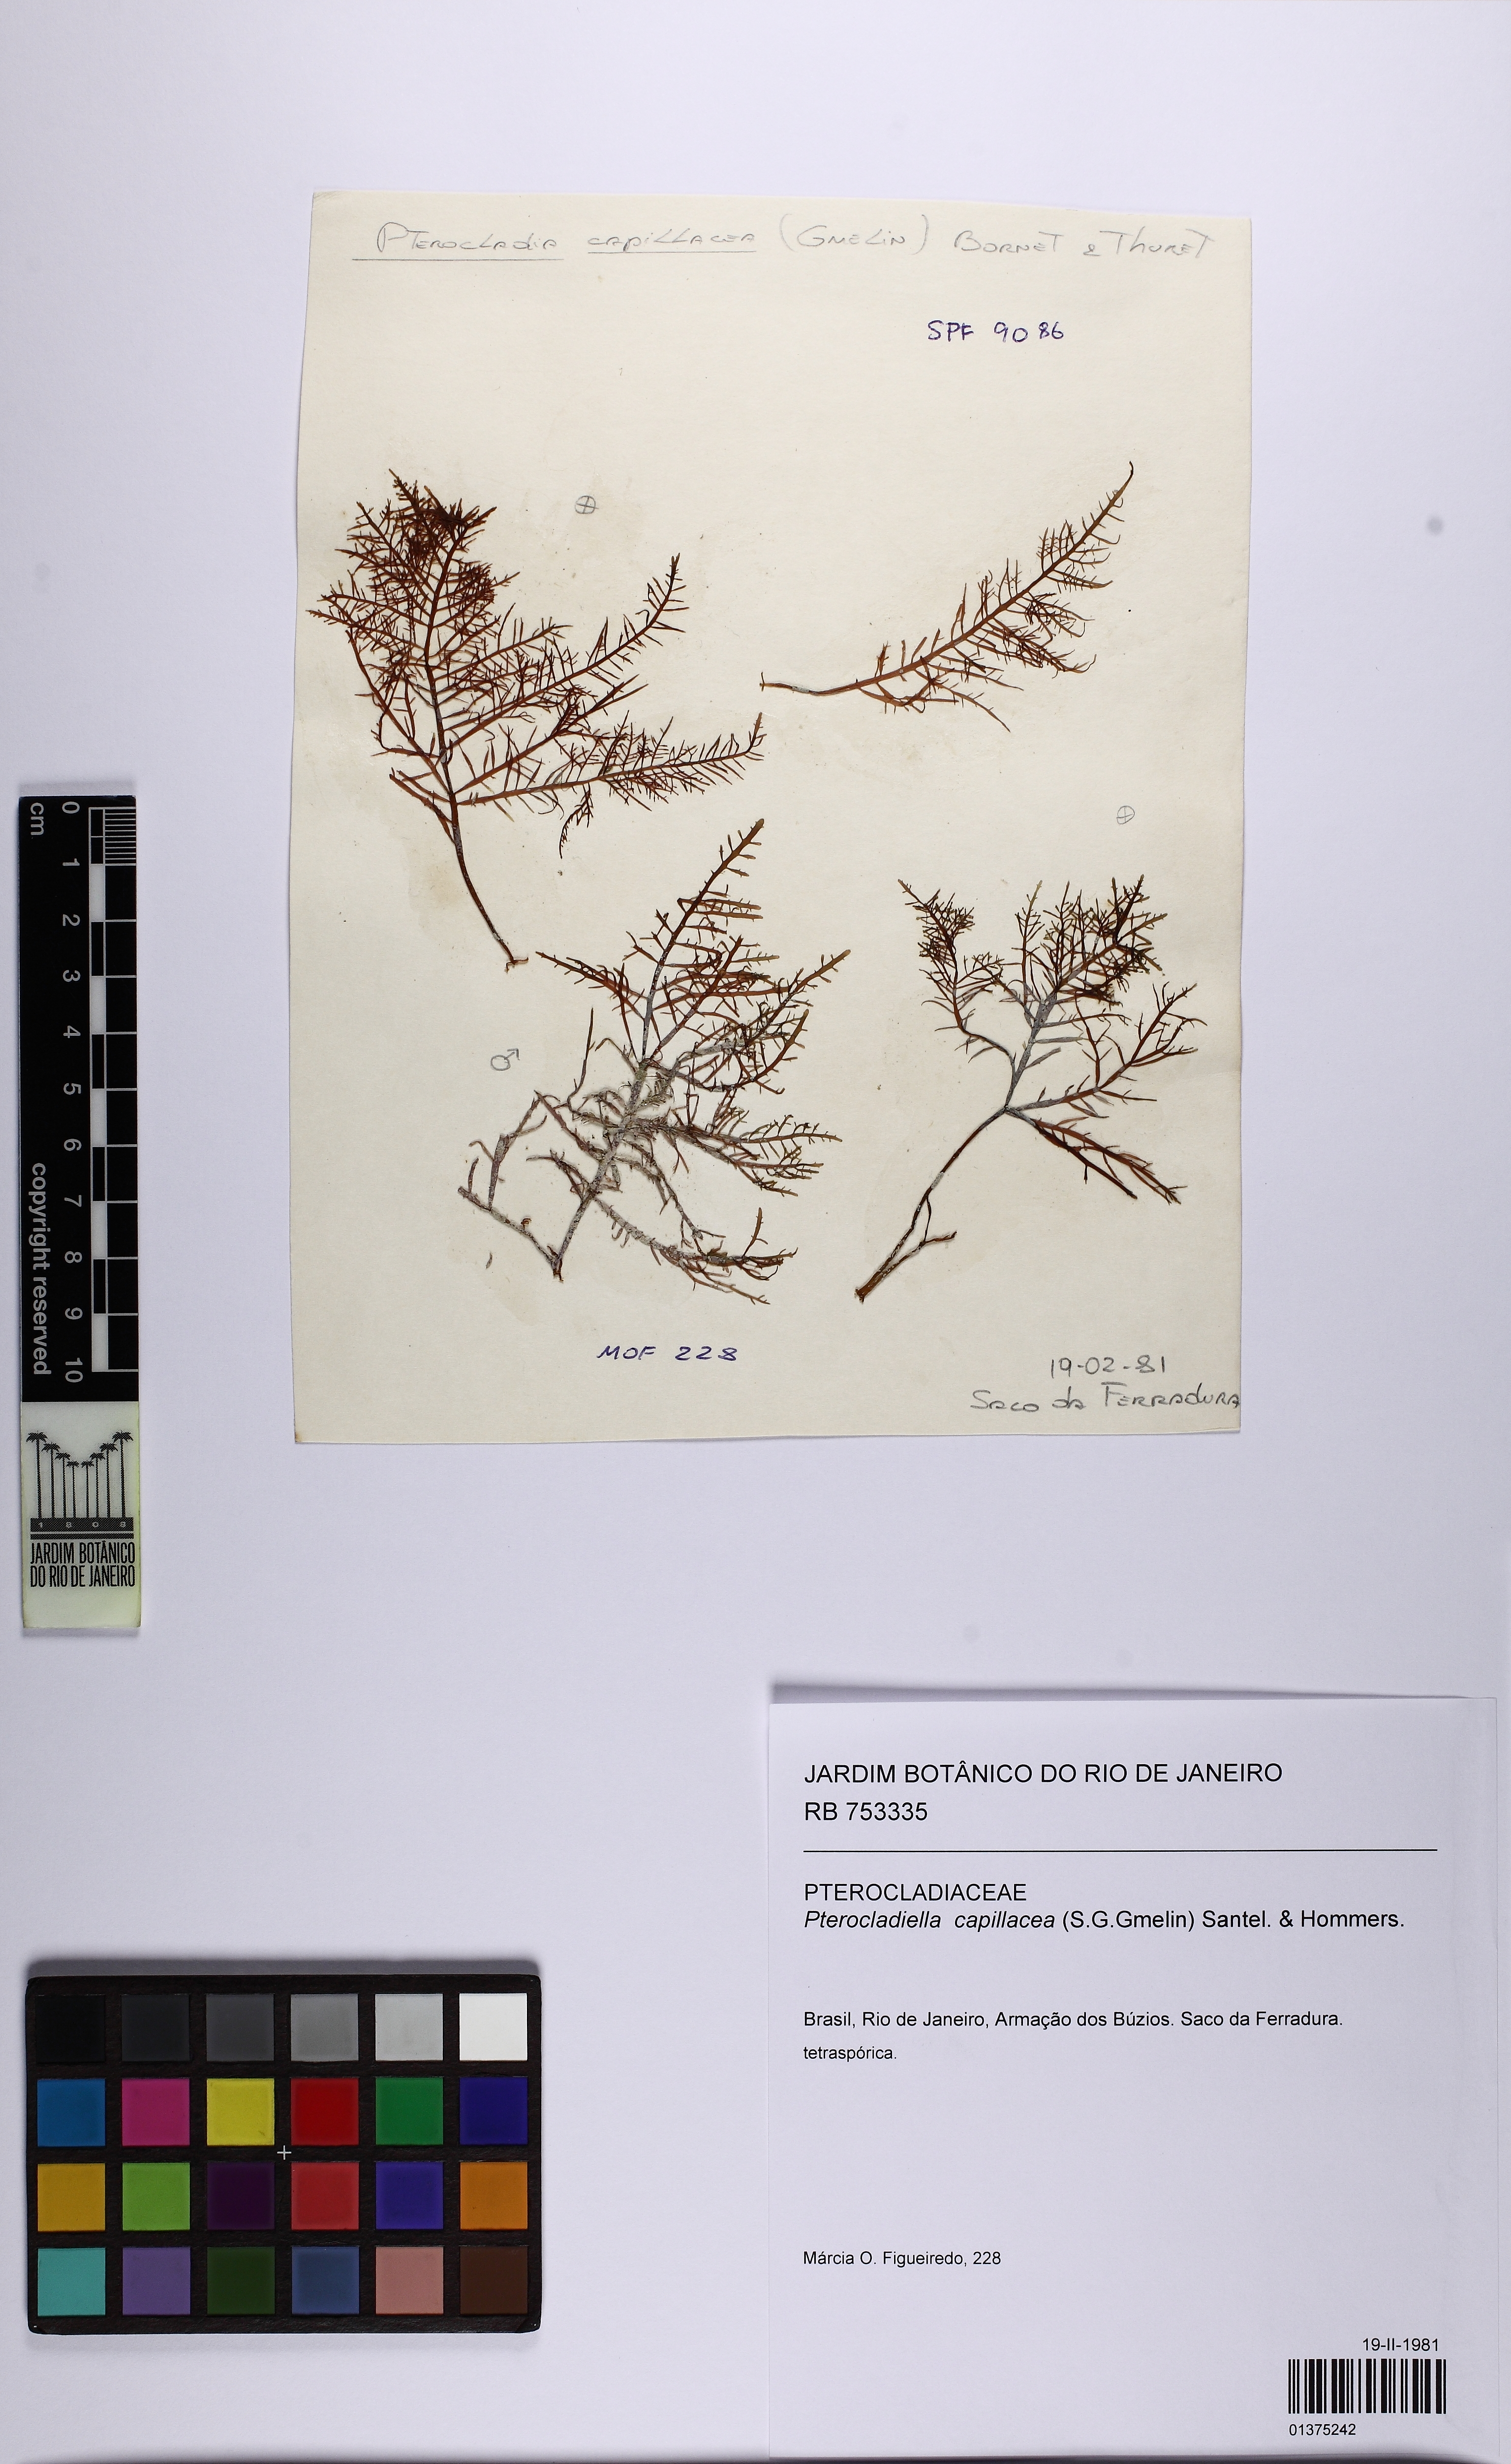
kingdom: Plantae
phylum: Rhodophyta
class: Florideophyceae
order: Gelidiales
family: Pterocladiaceae
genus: Pterocladiella
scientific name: Pterocladiella capillacea
